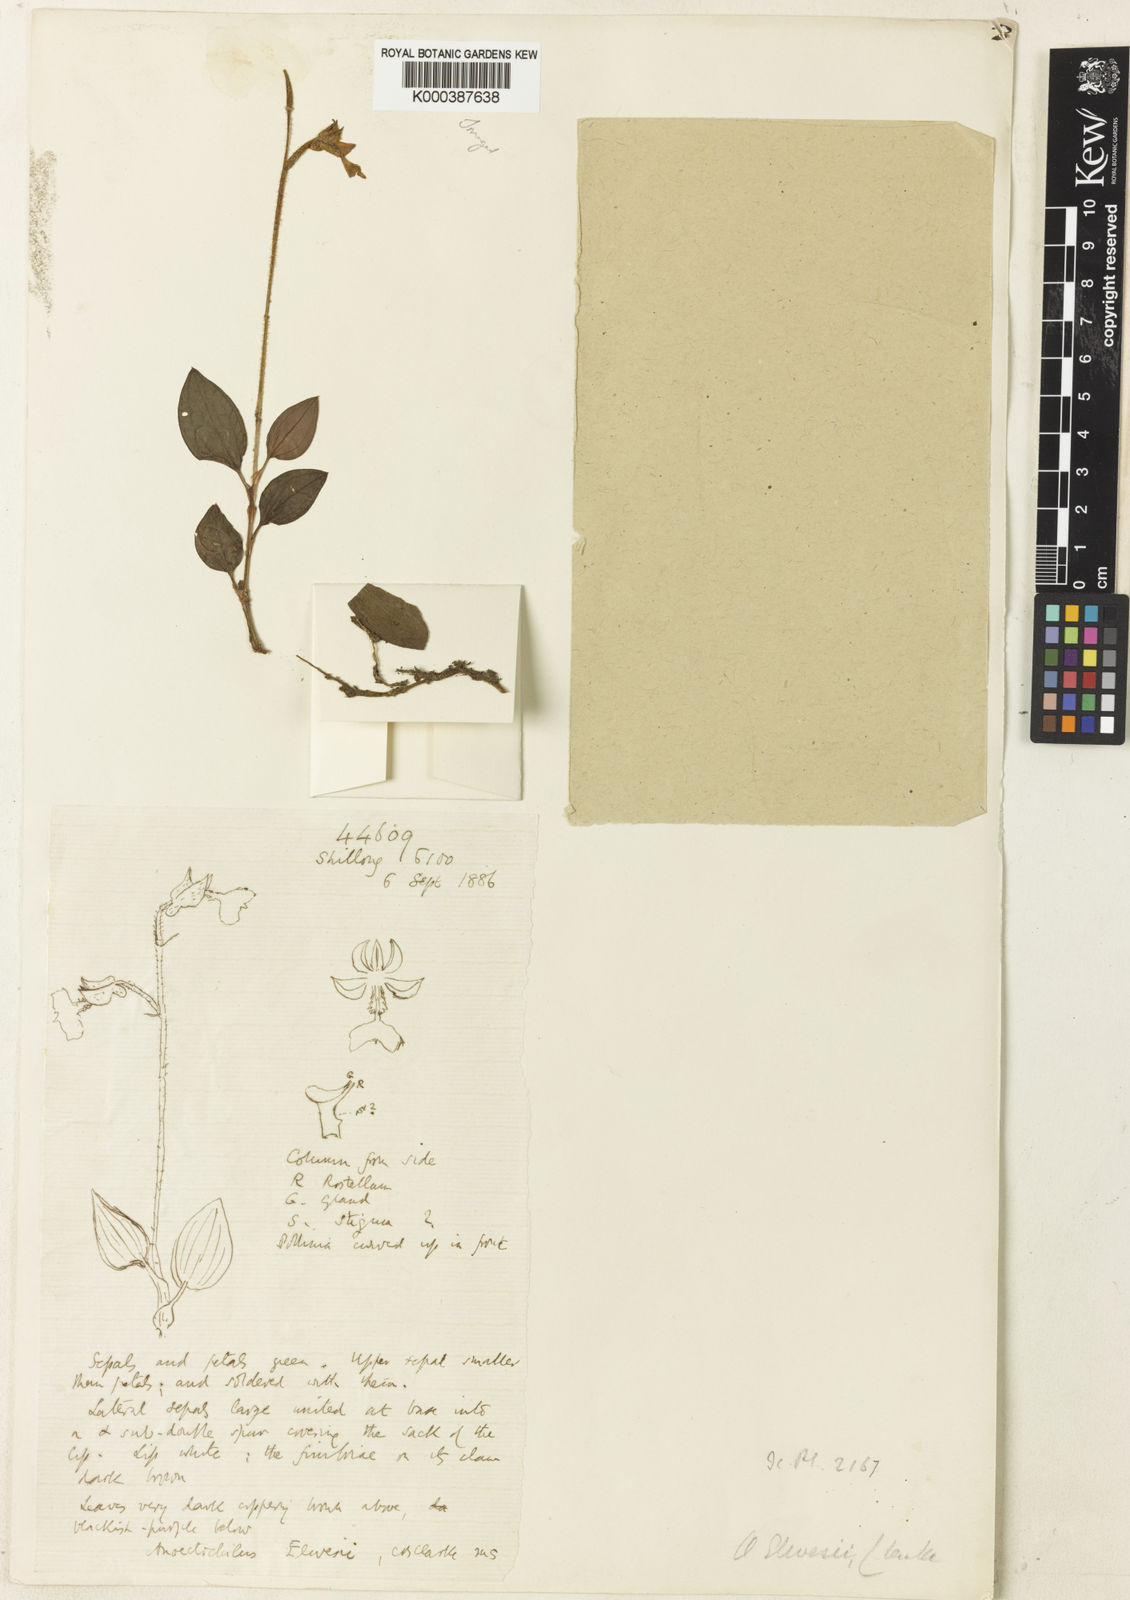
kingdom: Plantae
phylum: Tracheophyta
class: Liliopsida
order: Asparagales
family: Orchidaceae
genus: Odontochilus
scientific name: Odontochilus elwesii
